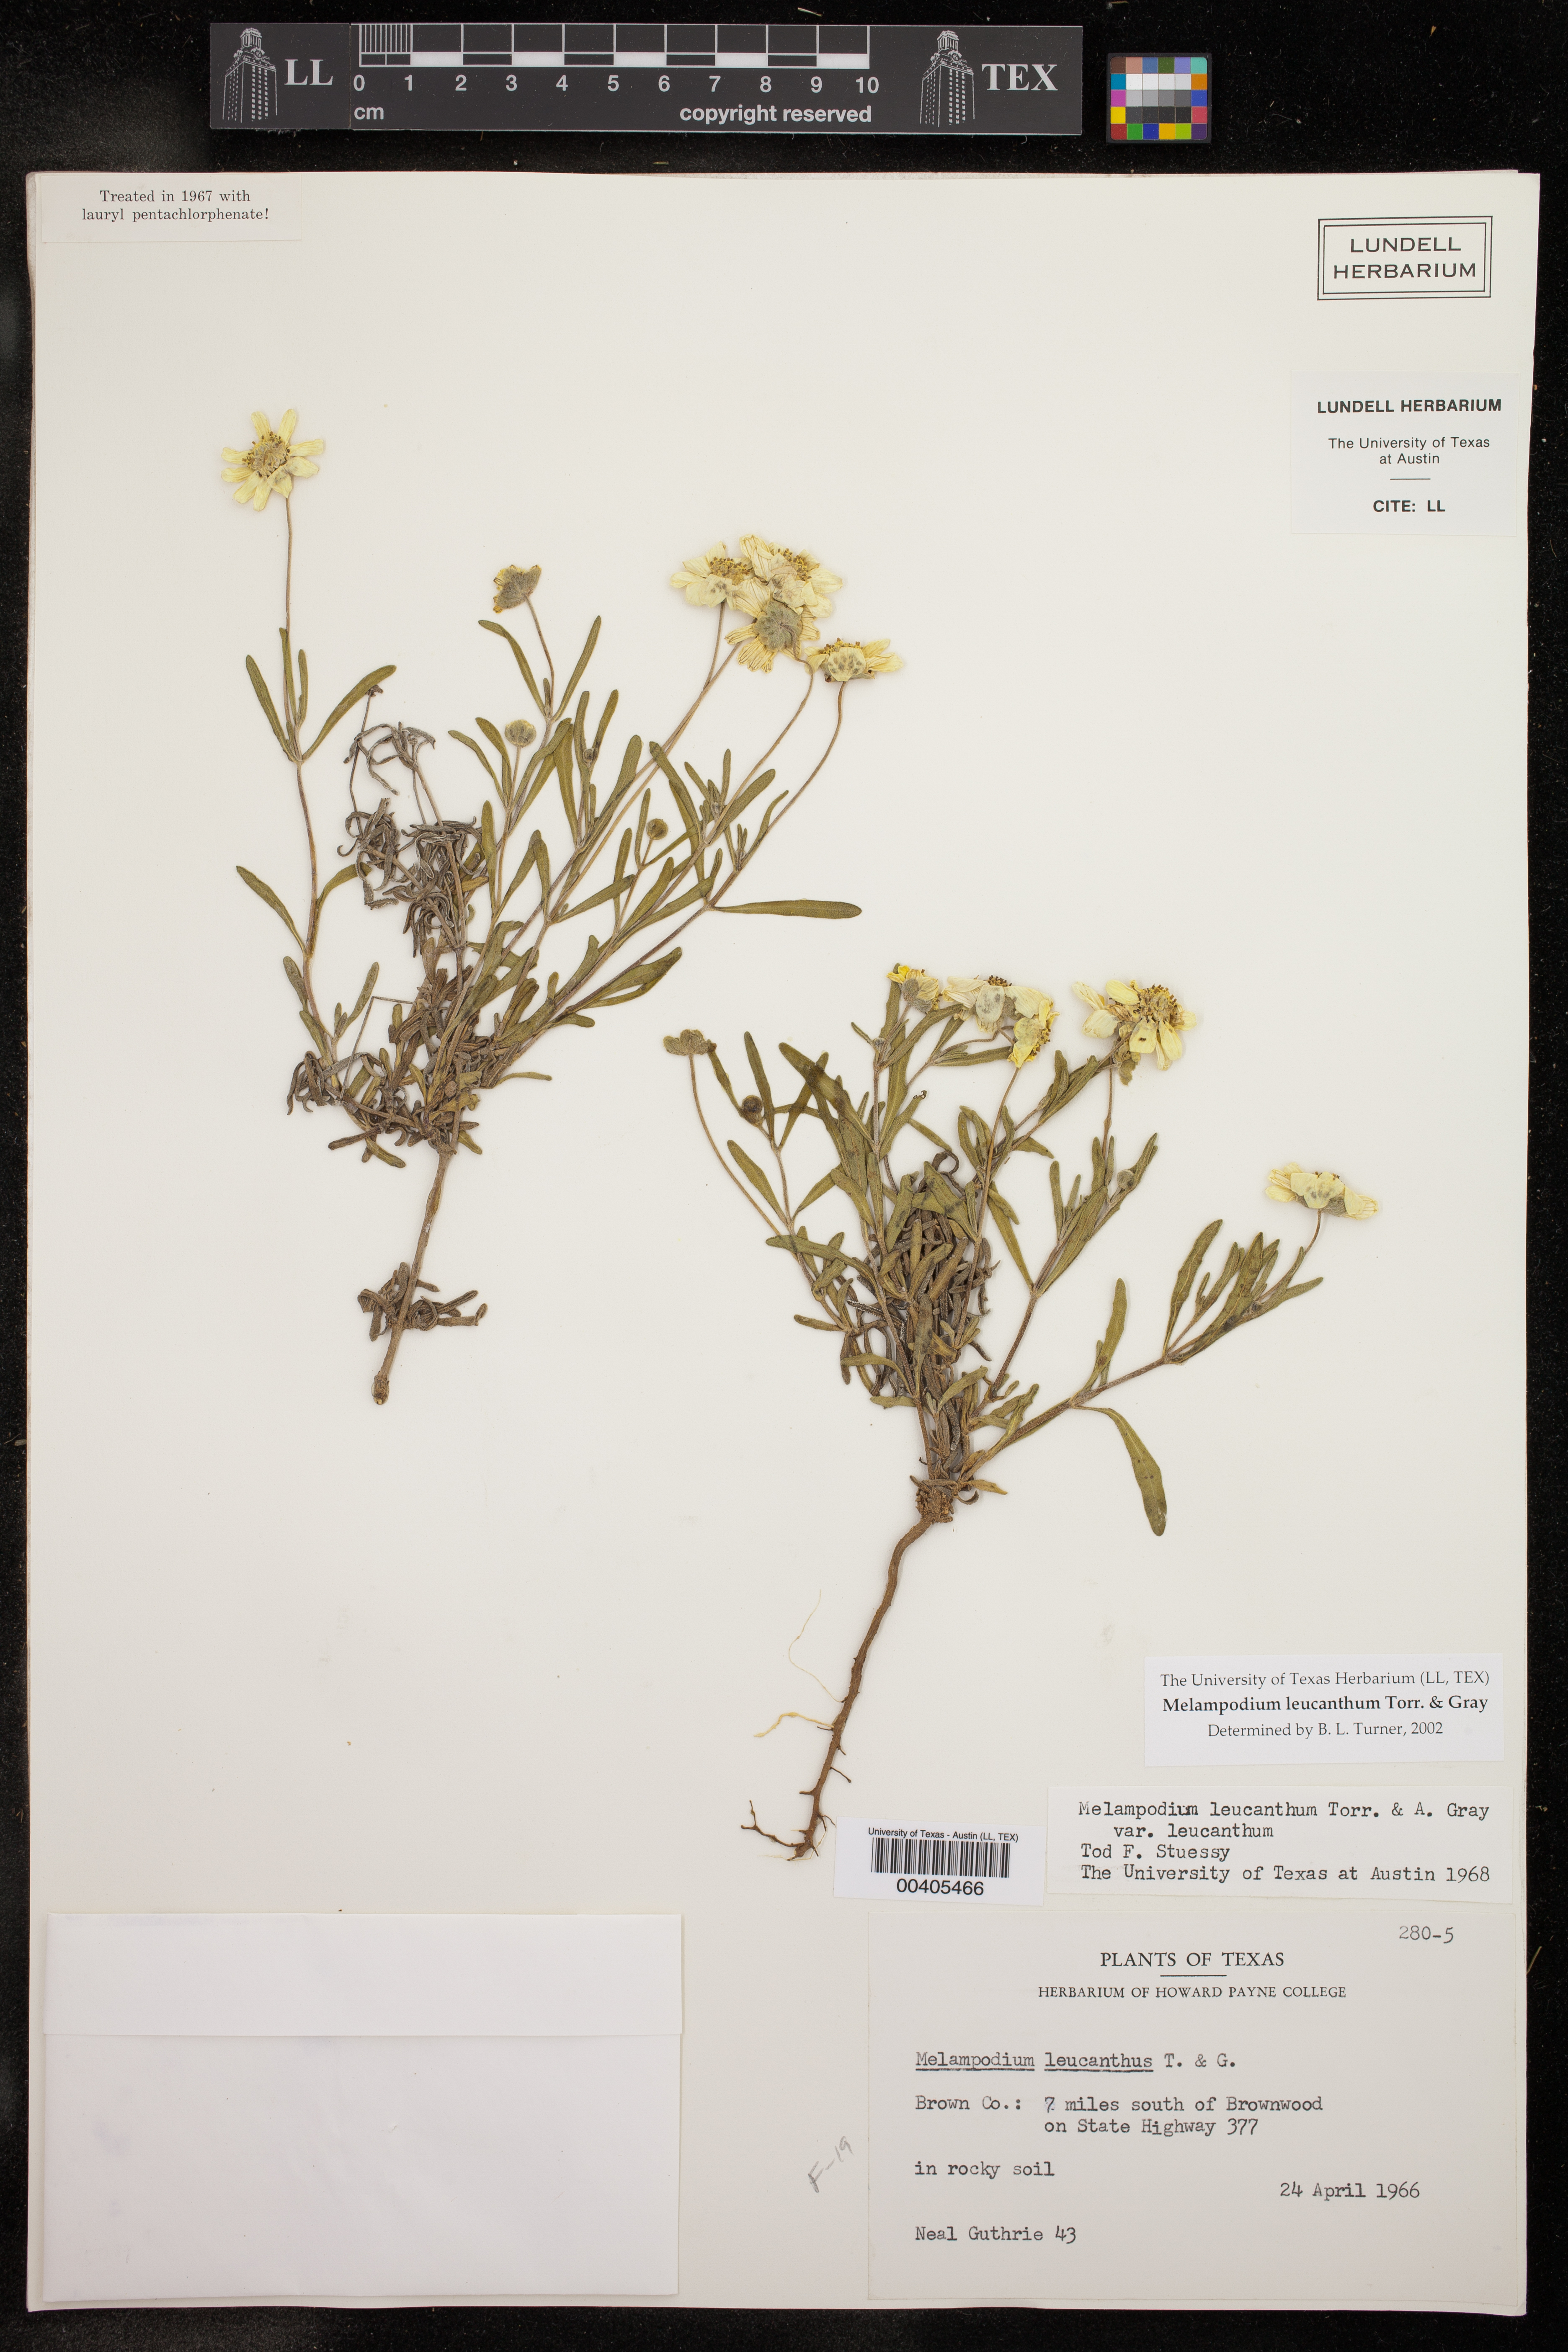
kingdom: Plantae
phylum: Tracheophyta
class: Magnoliopsida
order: Asterales
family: Asteraceae
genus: Melampodium
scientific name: Melampodium leucanthum
